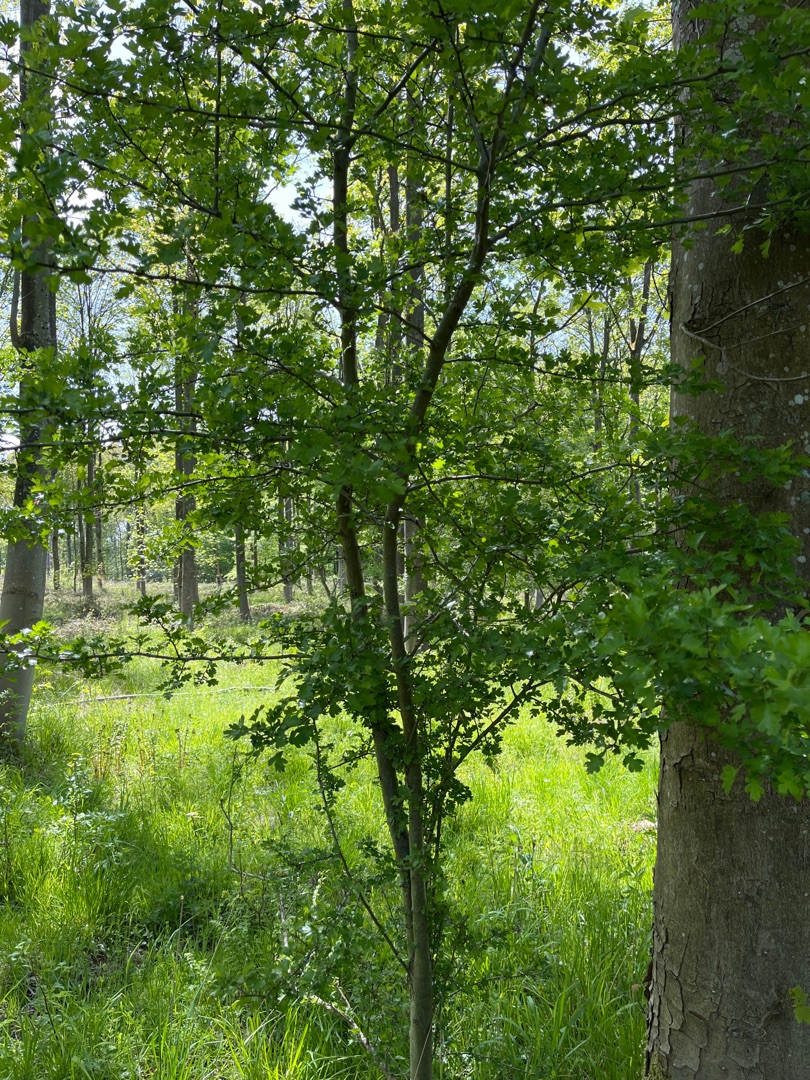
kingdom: Plantae
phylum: Tracheophyta
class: Magnoliopsida
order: Rosales
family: Rosaceae
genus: Crataegus
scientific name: Crataegus monogyna
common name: Engriflet hvidtjørn
